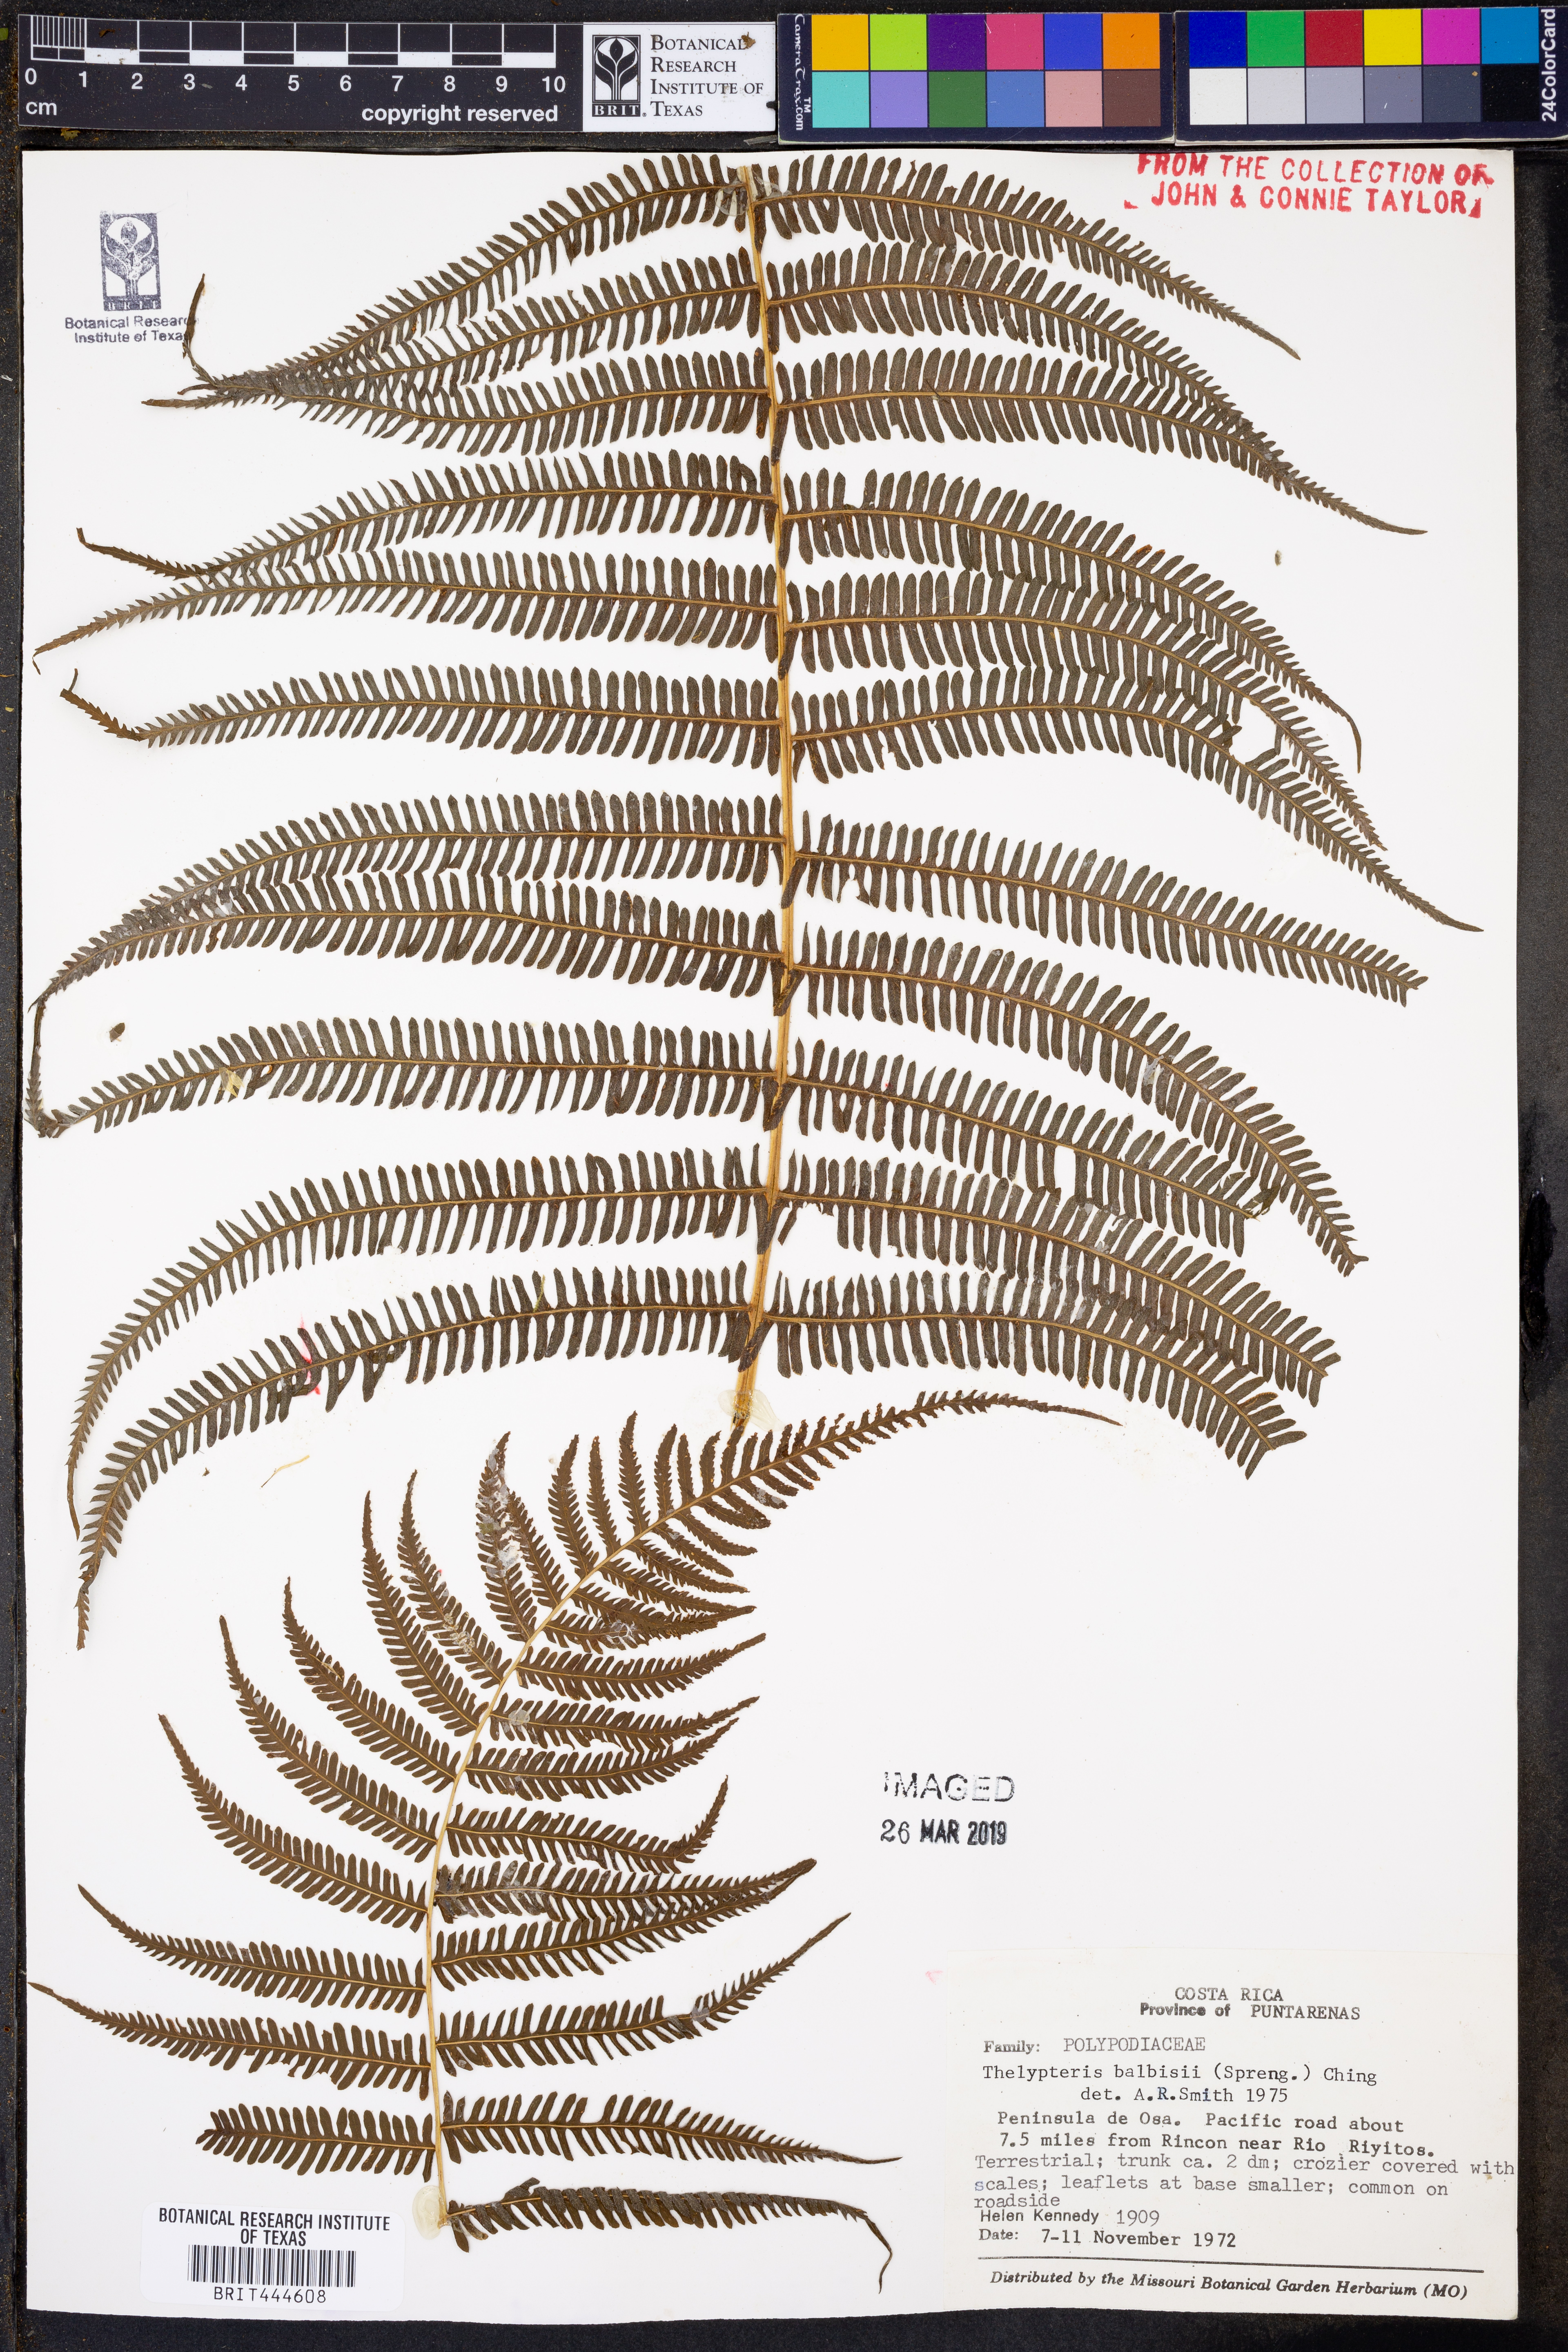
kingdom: Plantae
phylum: Tracheophyta
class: Polypodiopsida
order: Polypodiales
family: Thelypteridaceae
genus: Amauropelta
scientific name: Amauropelta balbisii
